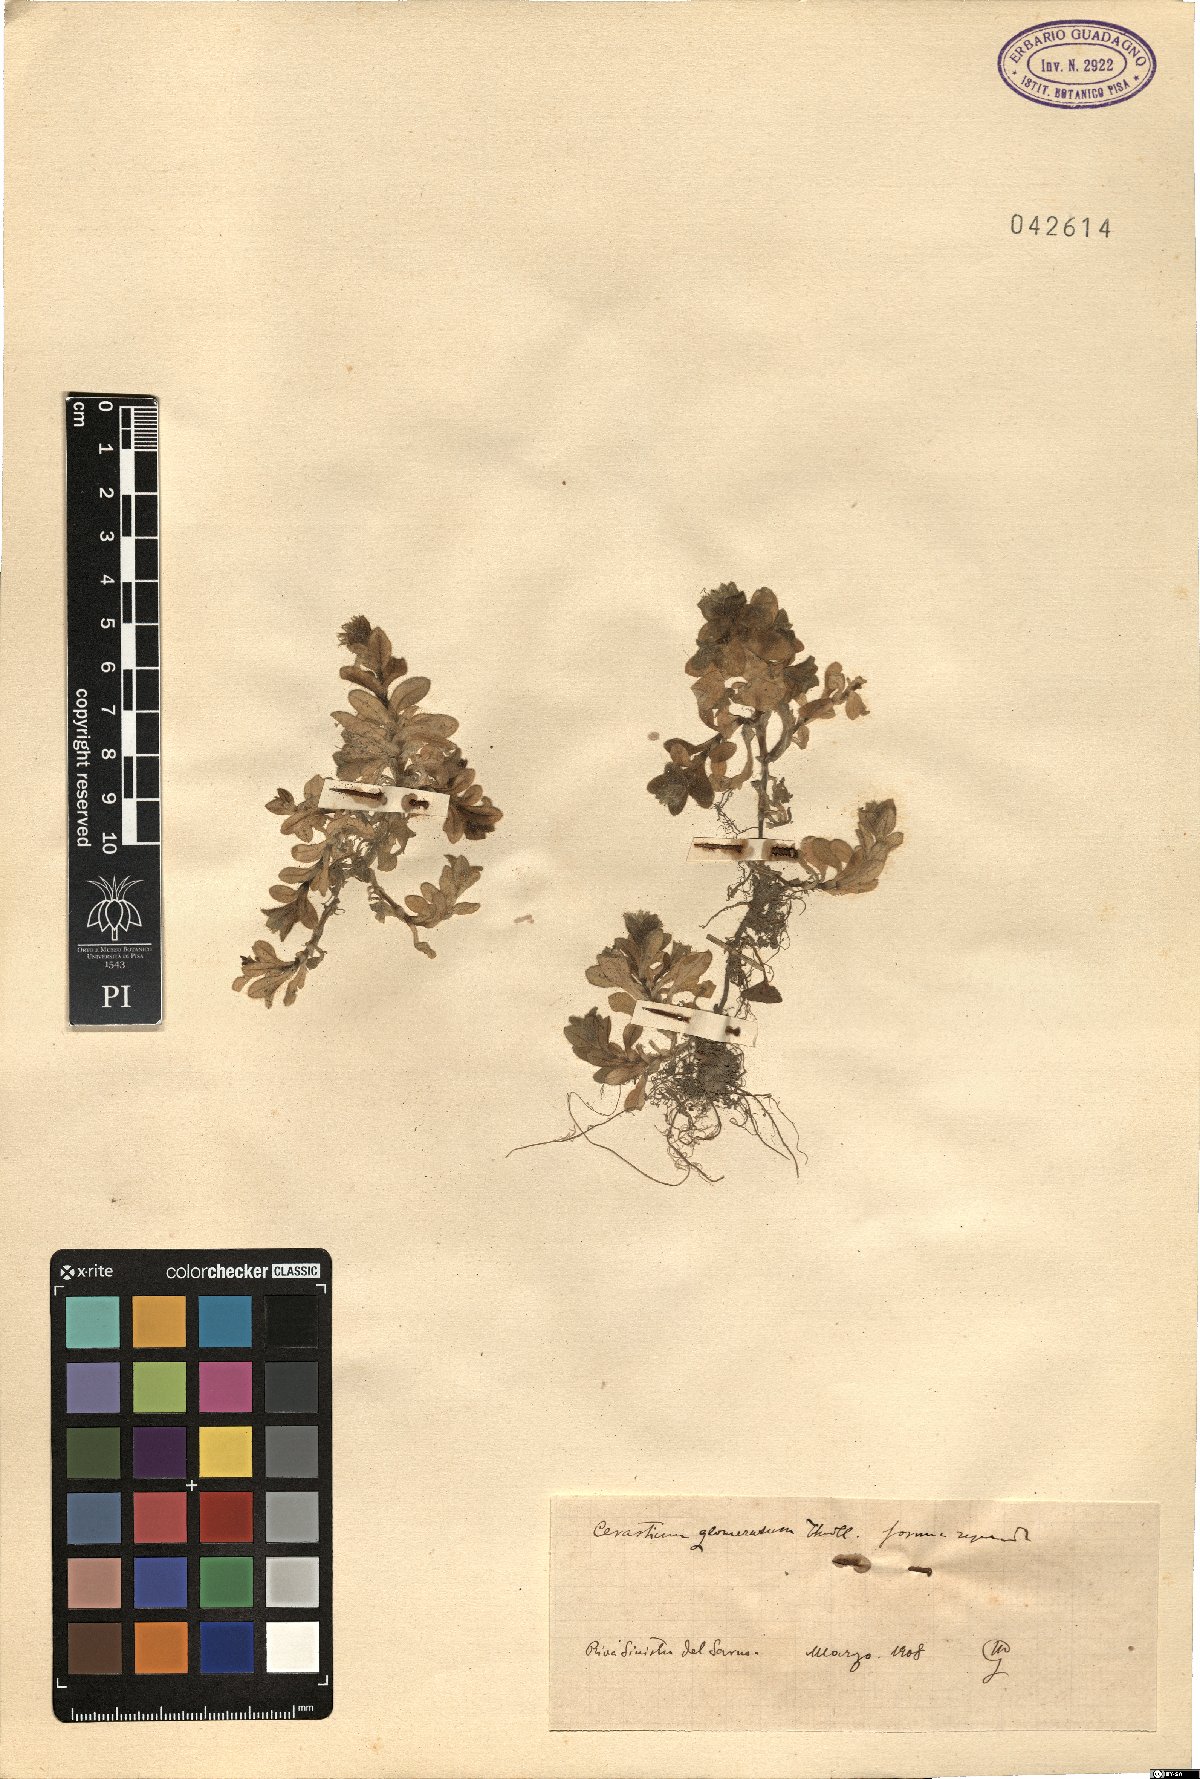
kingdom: Plantae
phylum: Tracheophyta
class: Magnoliopsida
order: Caryophyllales
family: Caryophyllaceae
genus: Cerastium
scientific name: Cerastium glomeratum
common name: Sticky chickweed
